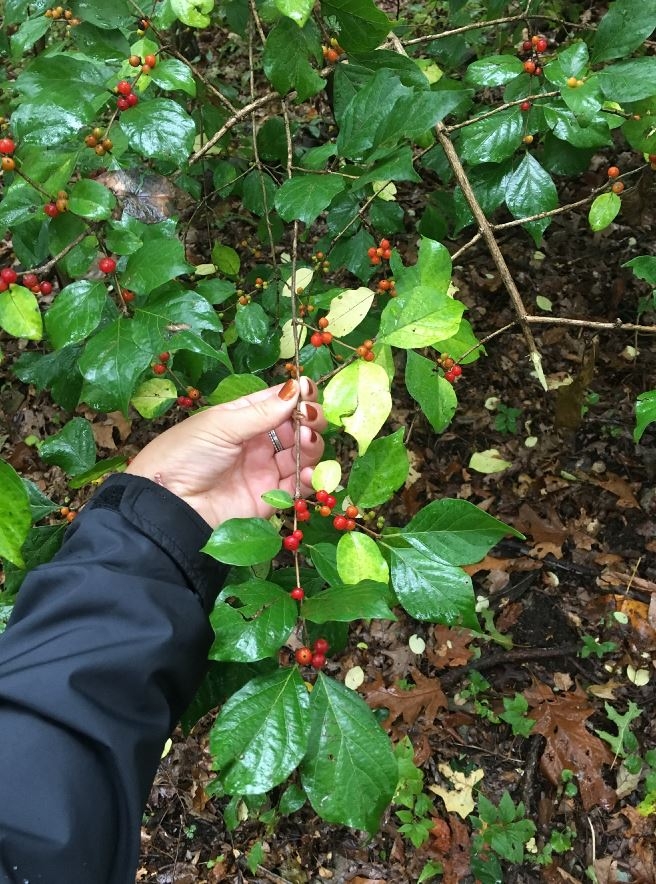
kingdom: Plantae
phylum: Tracheophyta
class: Magnoliopsida
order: Dipsacales
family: Caprifoliaceae
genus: Lonicera
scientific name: Lonicera maackii
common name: Amur honeysuckle
